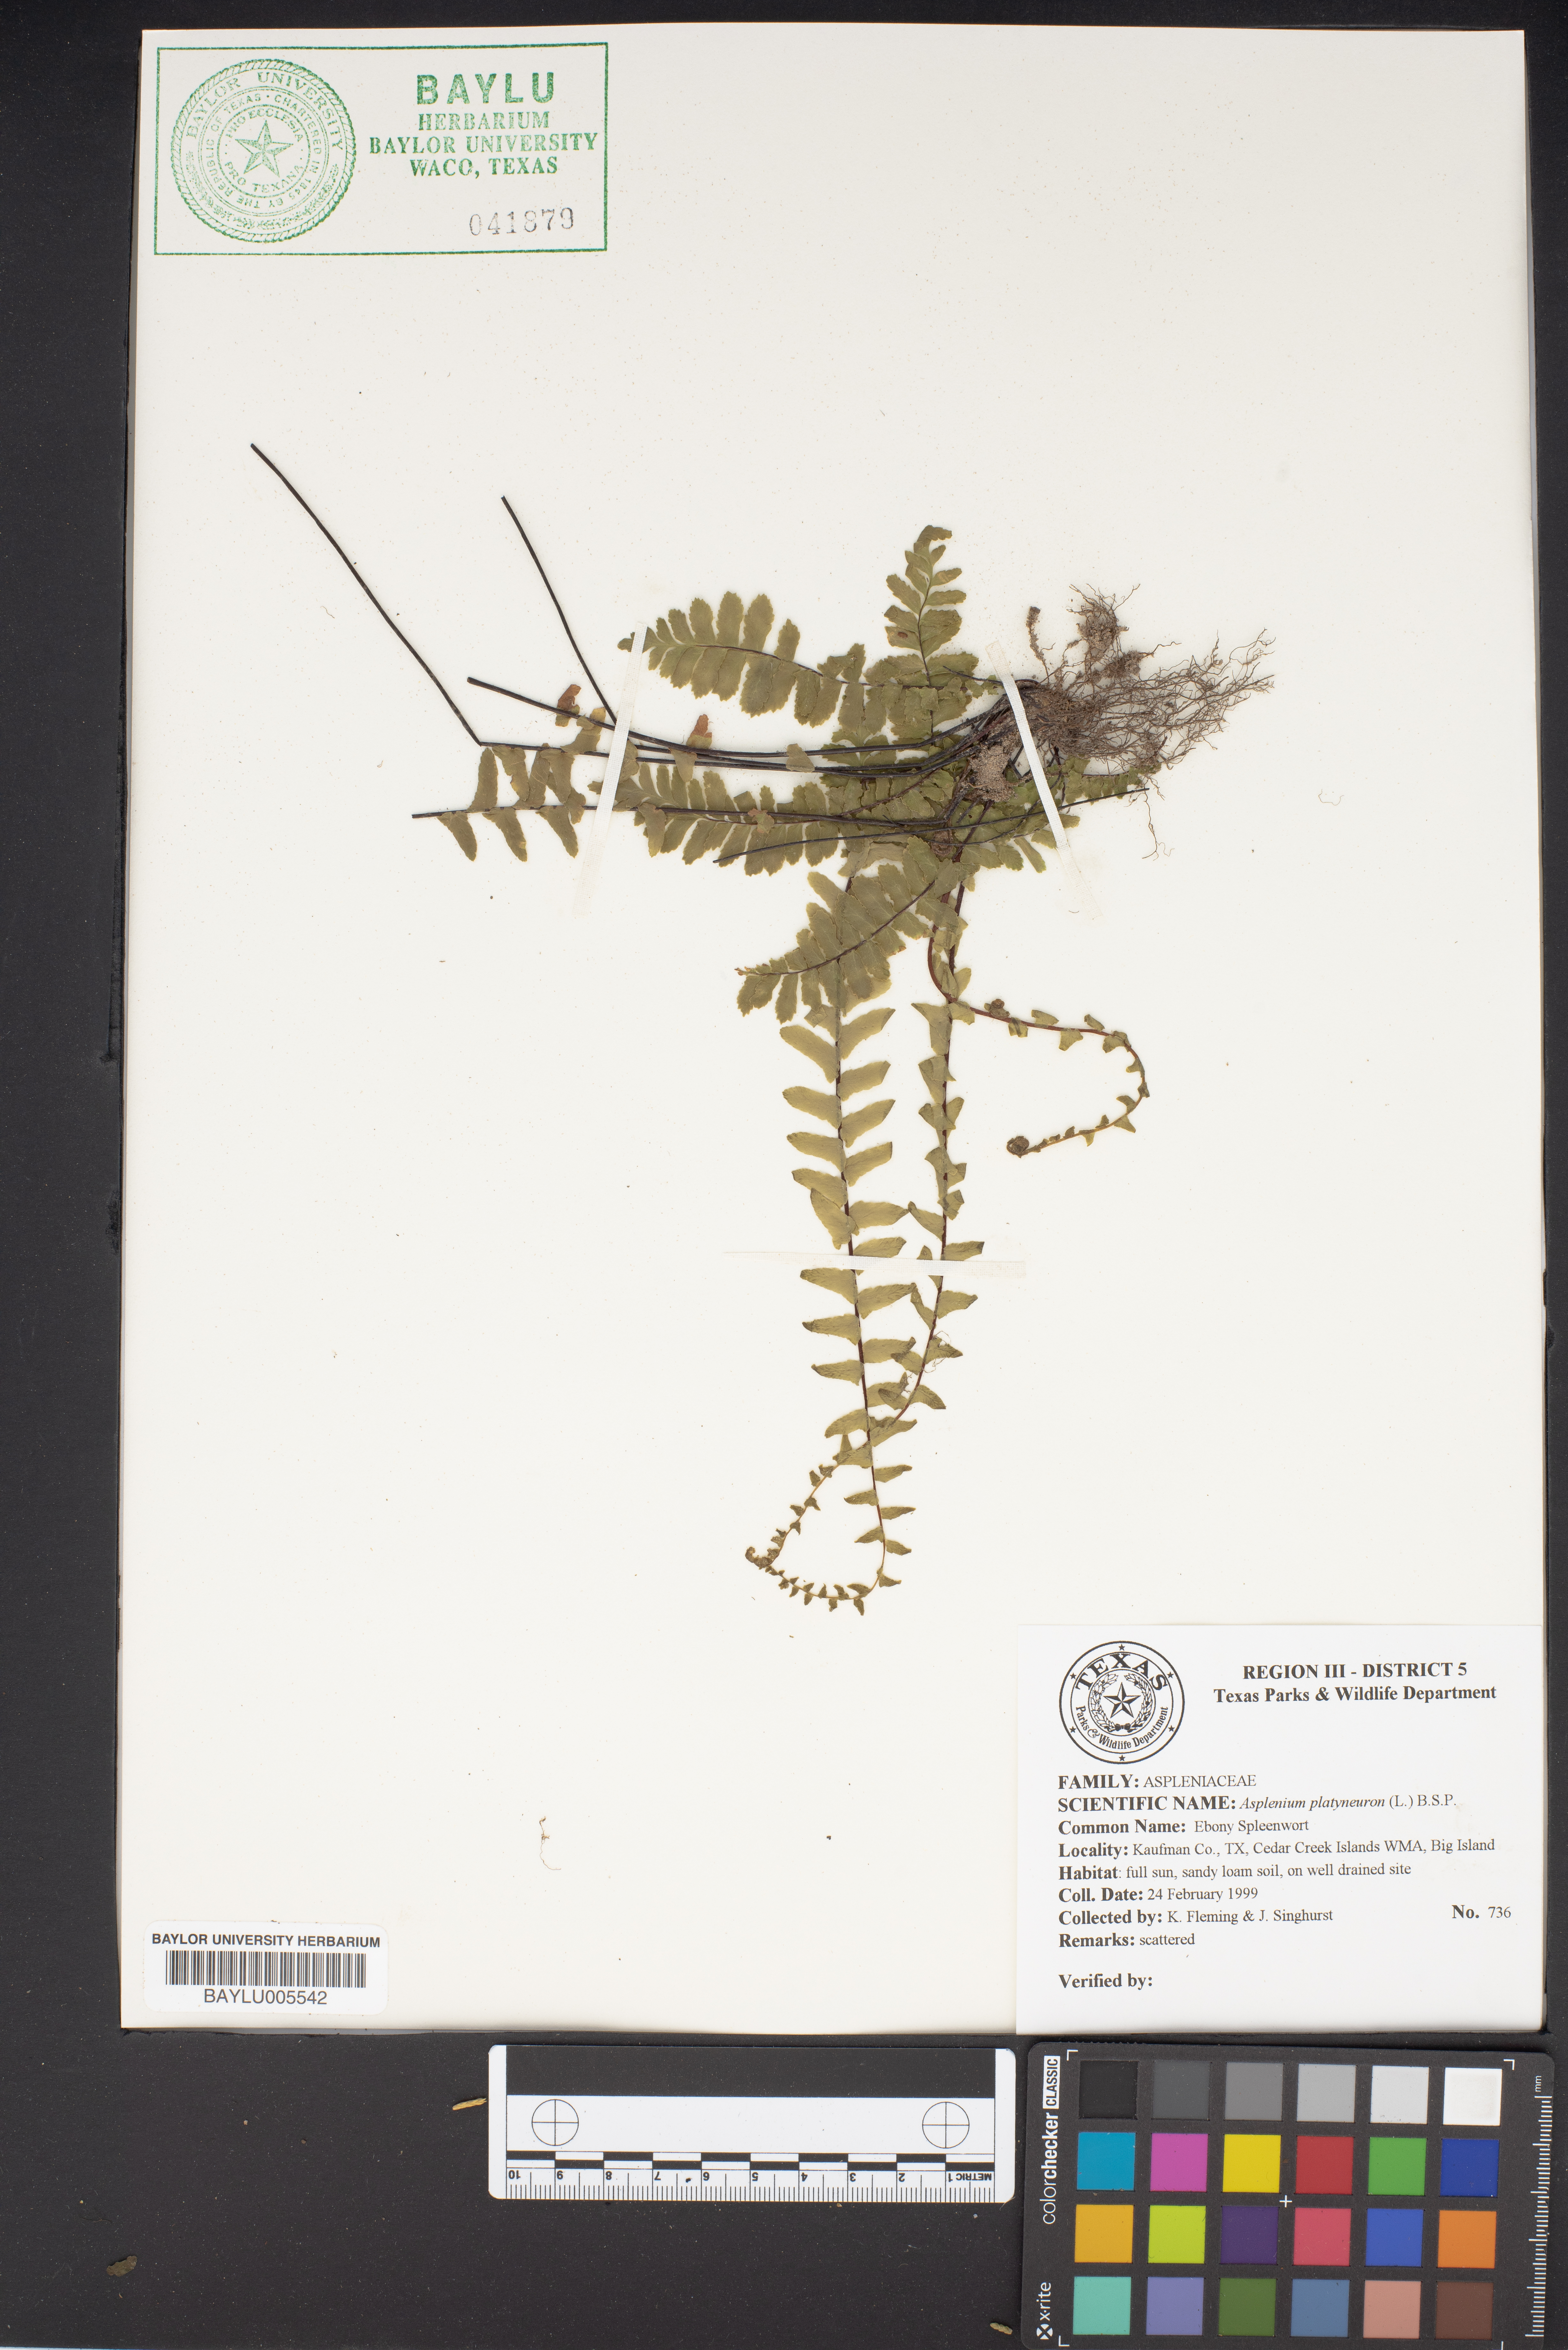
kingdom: Plantae
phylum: Tracheophyta
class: Polypodiopsida
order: Polypodiales
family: Aspleniaceae
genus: Asplenium
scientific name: Asplenium platyneuron
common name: Ebony spleenwort
